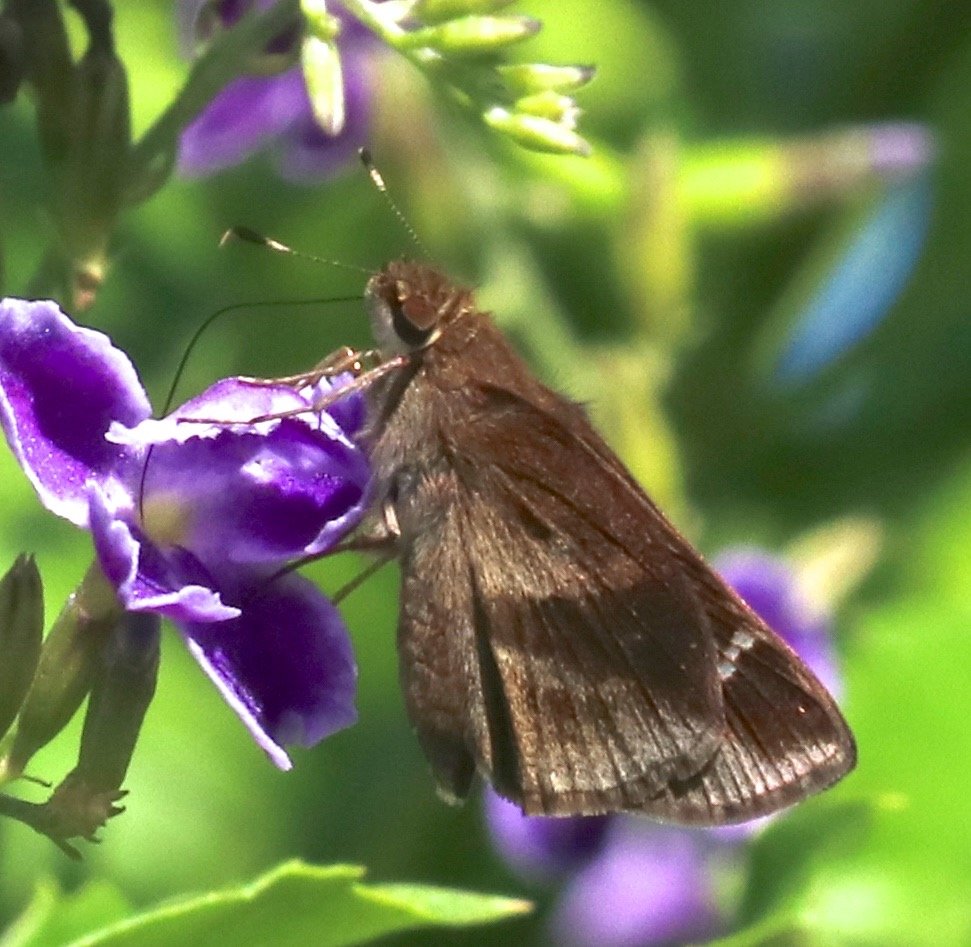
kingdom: Animalia
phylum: Arthropoda
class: Insecta
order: Lepidoptera
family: Hesperiidae
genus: Lerema
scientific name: Lerema accius
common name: Clouded Skipper
